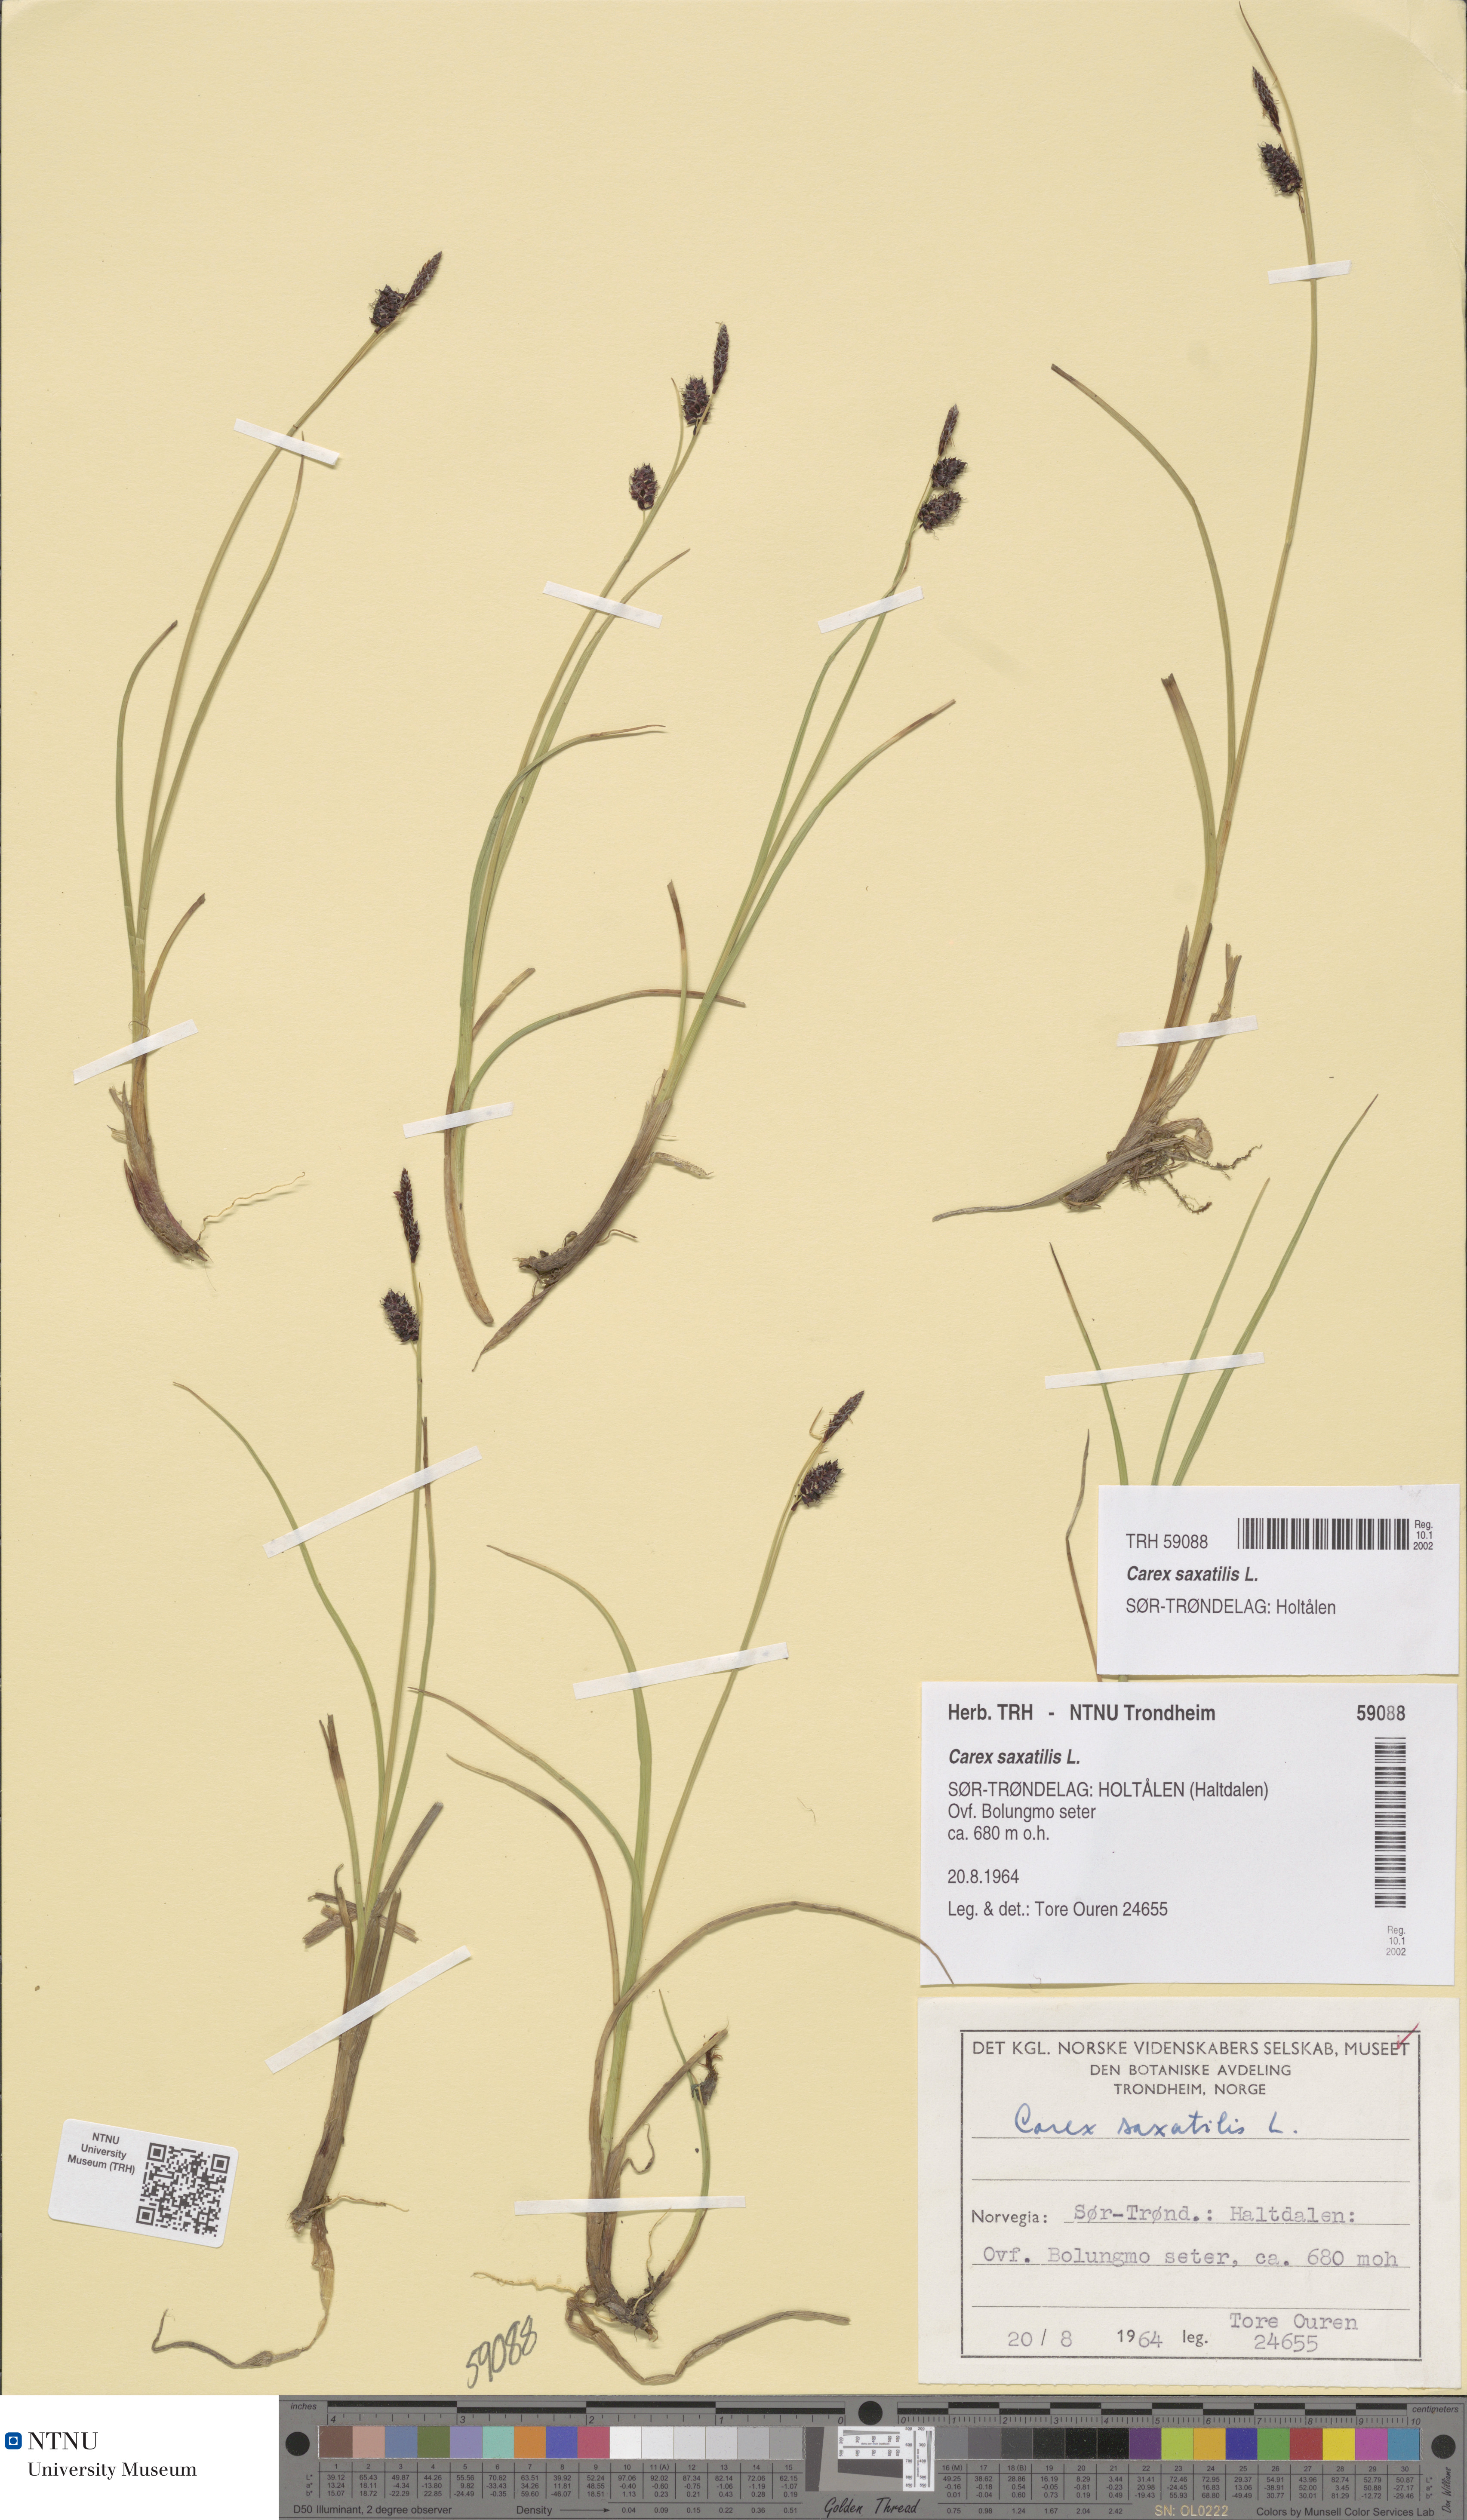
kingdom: Plantae
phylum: Tracheophyta
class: Liliopsida
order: Poales
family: Cyperaceae
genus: Carex
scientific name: Carex saxatilis
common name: Russet sedge
